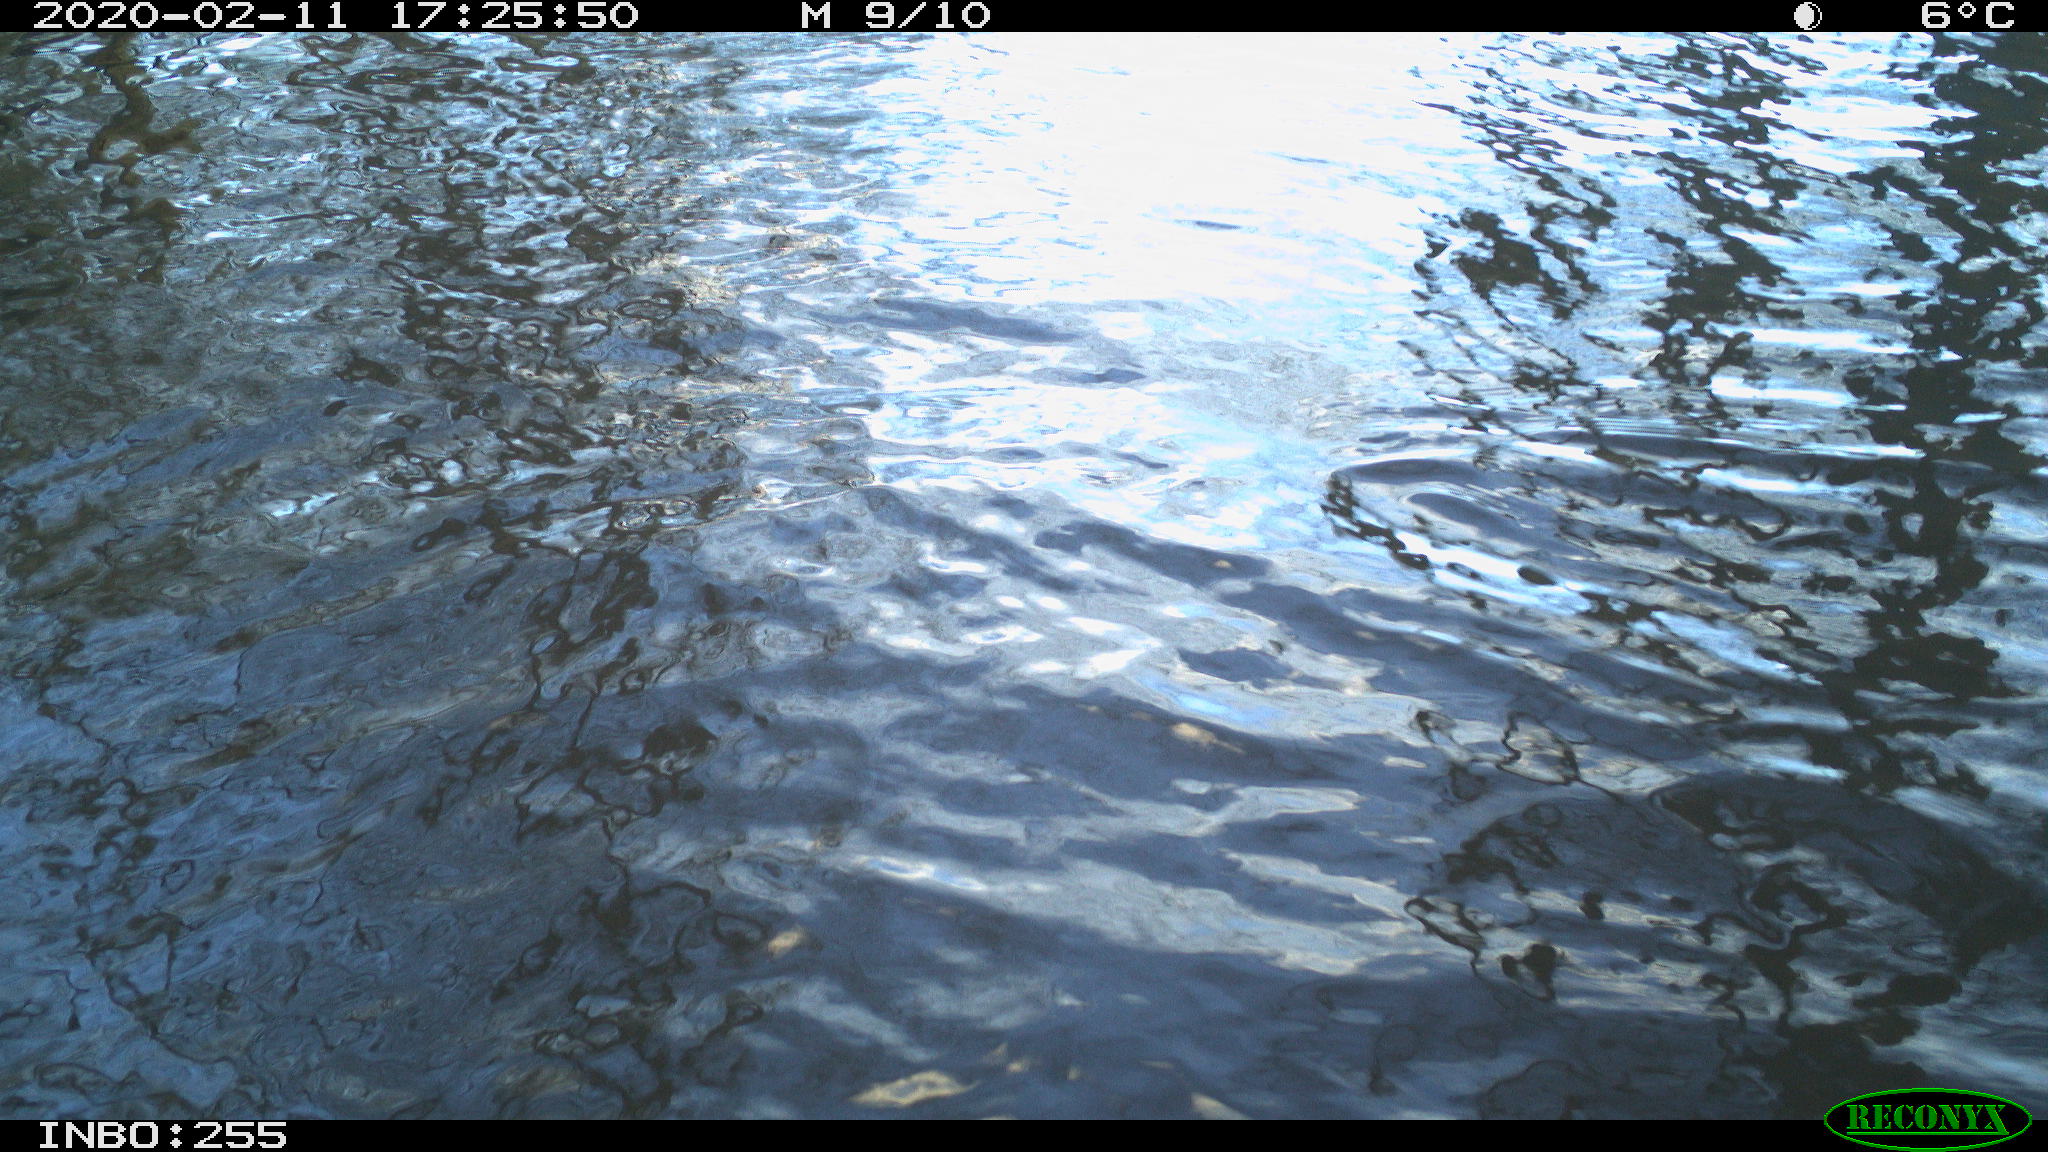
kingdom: Animalia
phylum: Chordata
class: Aves
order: Gruiformes
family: Rallidae
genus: Fulica
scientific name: Fulica atra
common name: Eurasian coot
